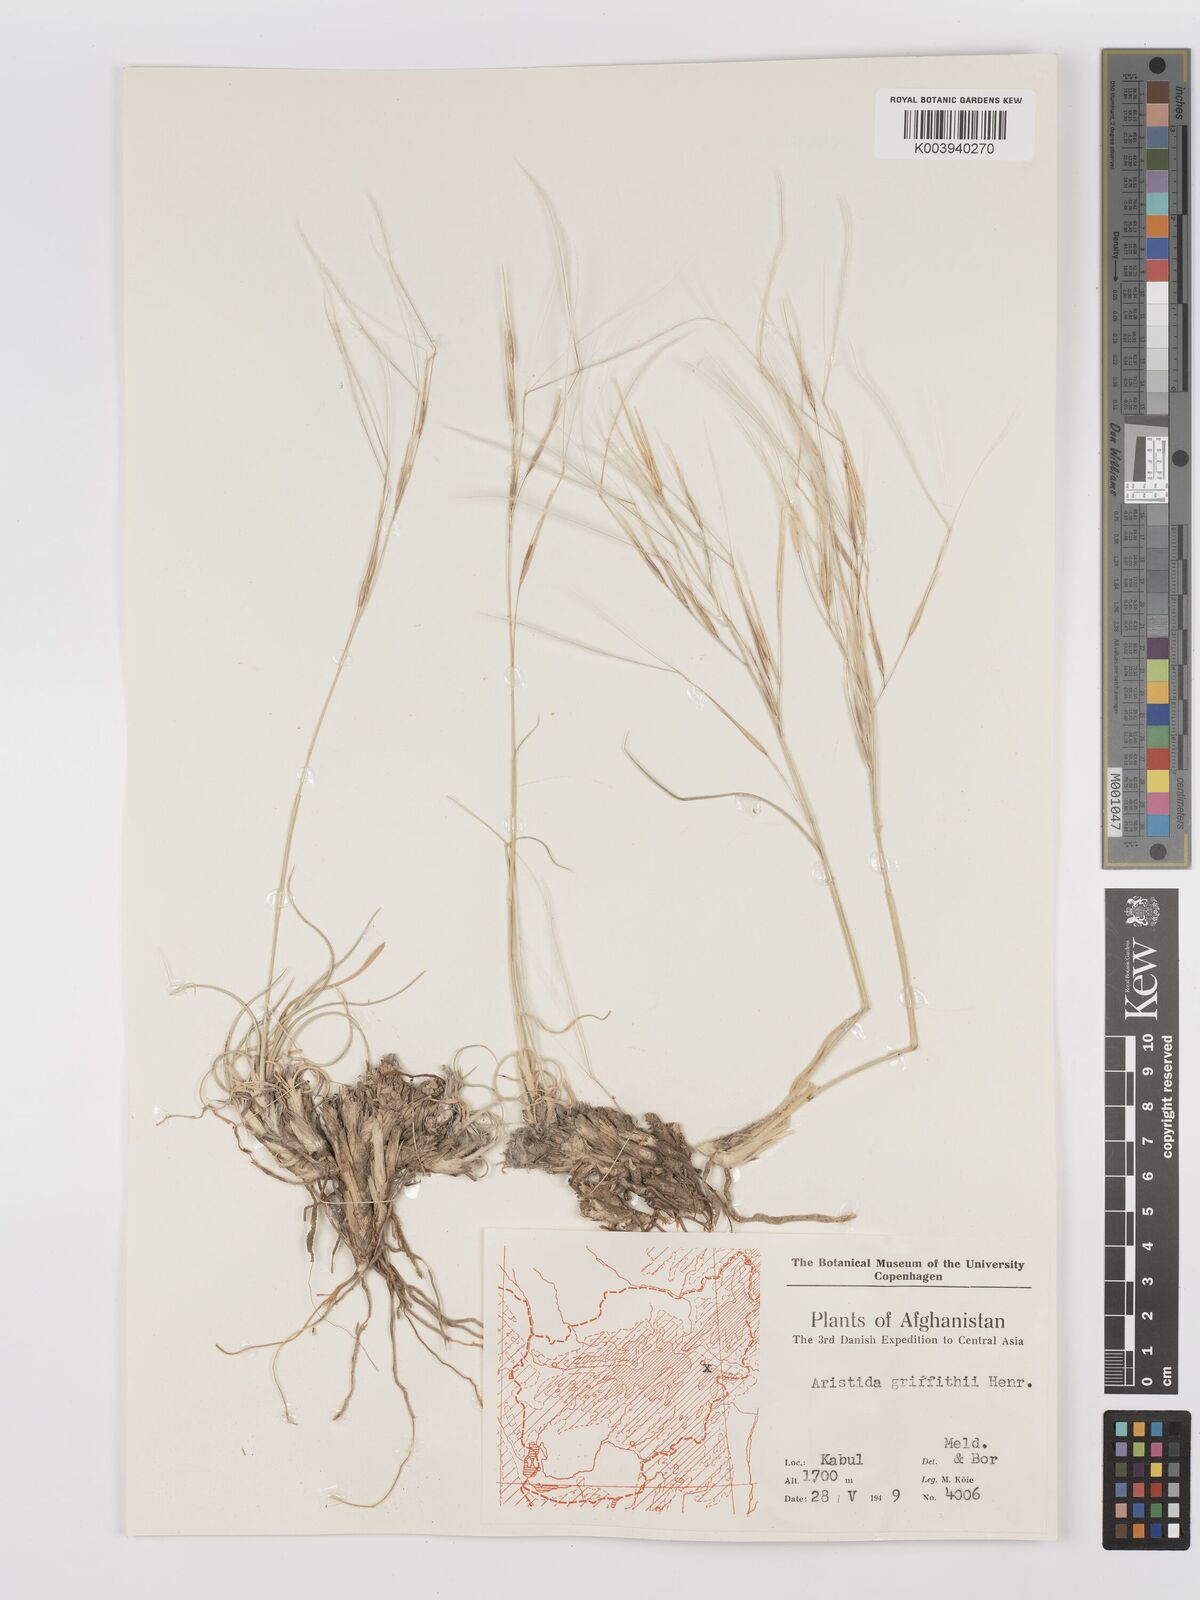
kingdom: Plantae
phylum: Tracheophyta
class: Liliopsida
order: Poales
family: Poaceae
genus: Stipagrostis
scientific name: Stipagrostis griffithii
